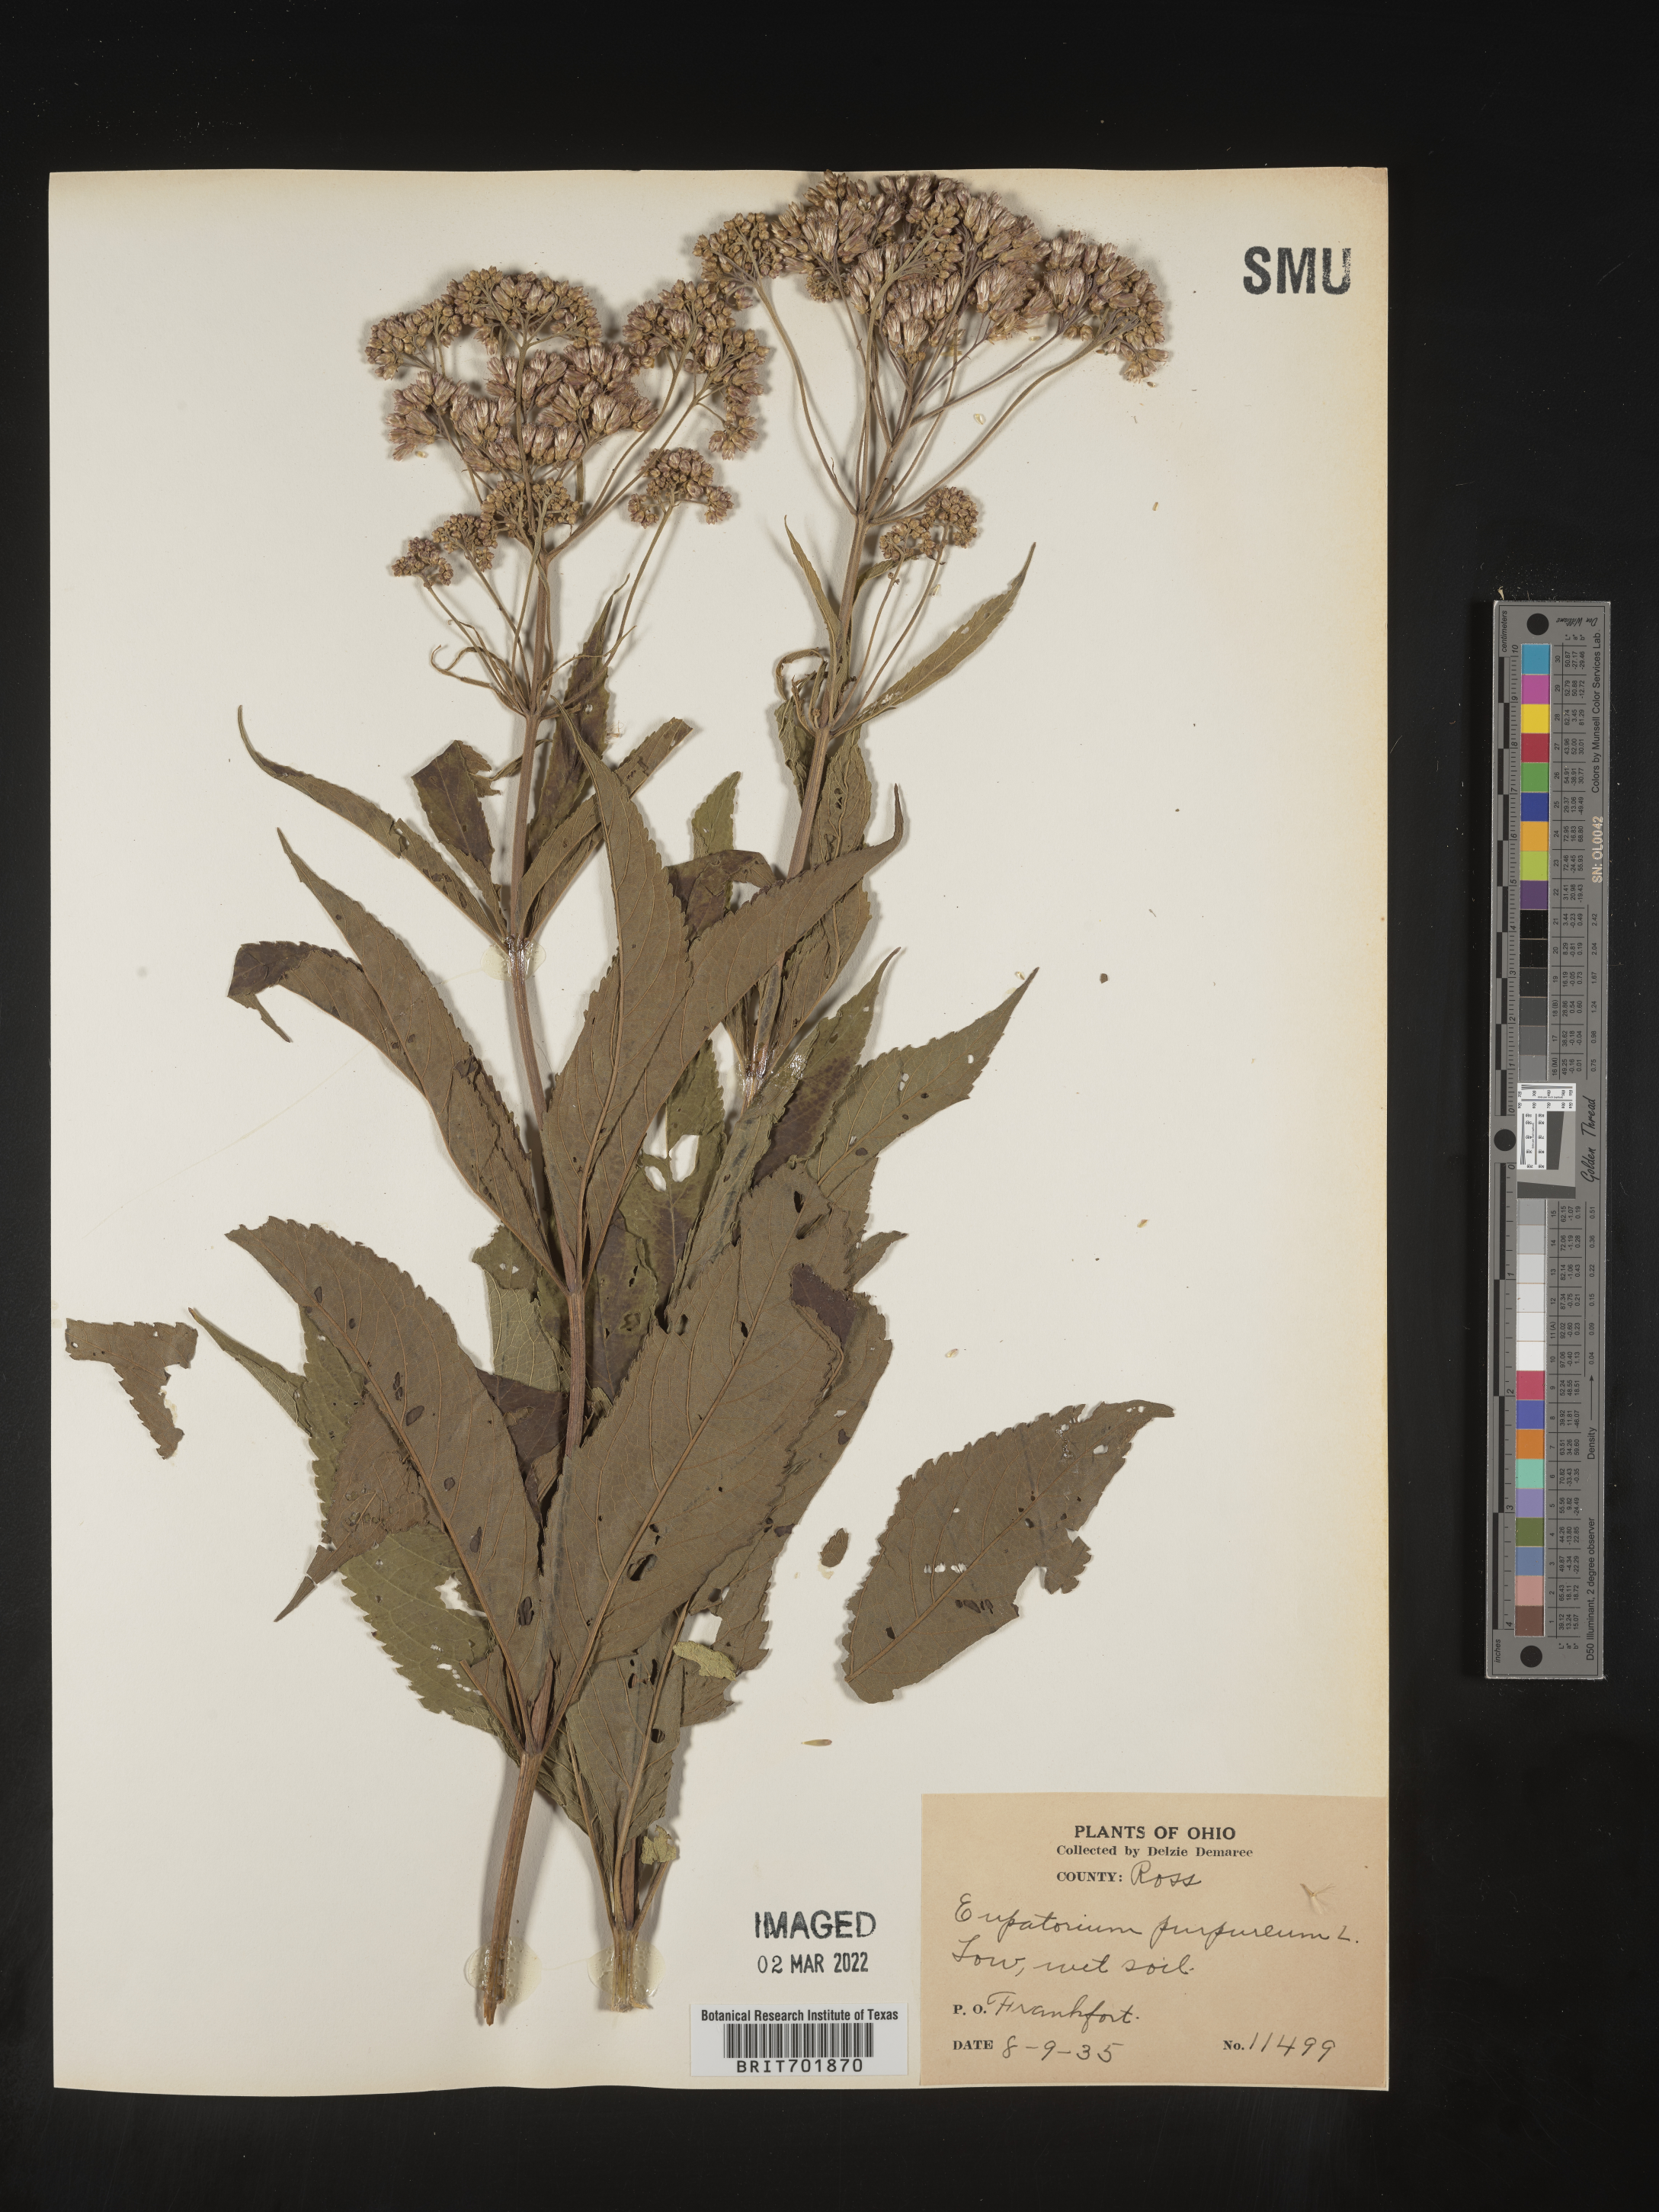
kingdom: Plantae
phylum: Tracheophyta
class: Magnoliopsida
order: Asterales
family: Asteraceae
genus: Eupatorium
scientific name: Eupatorium quaternum
